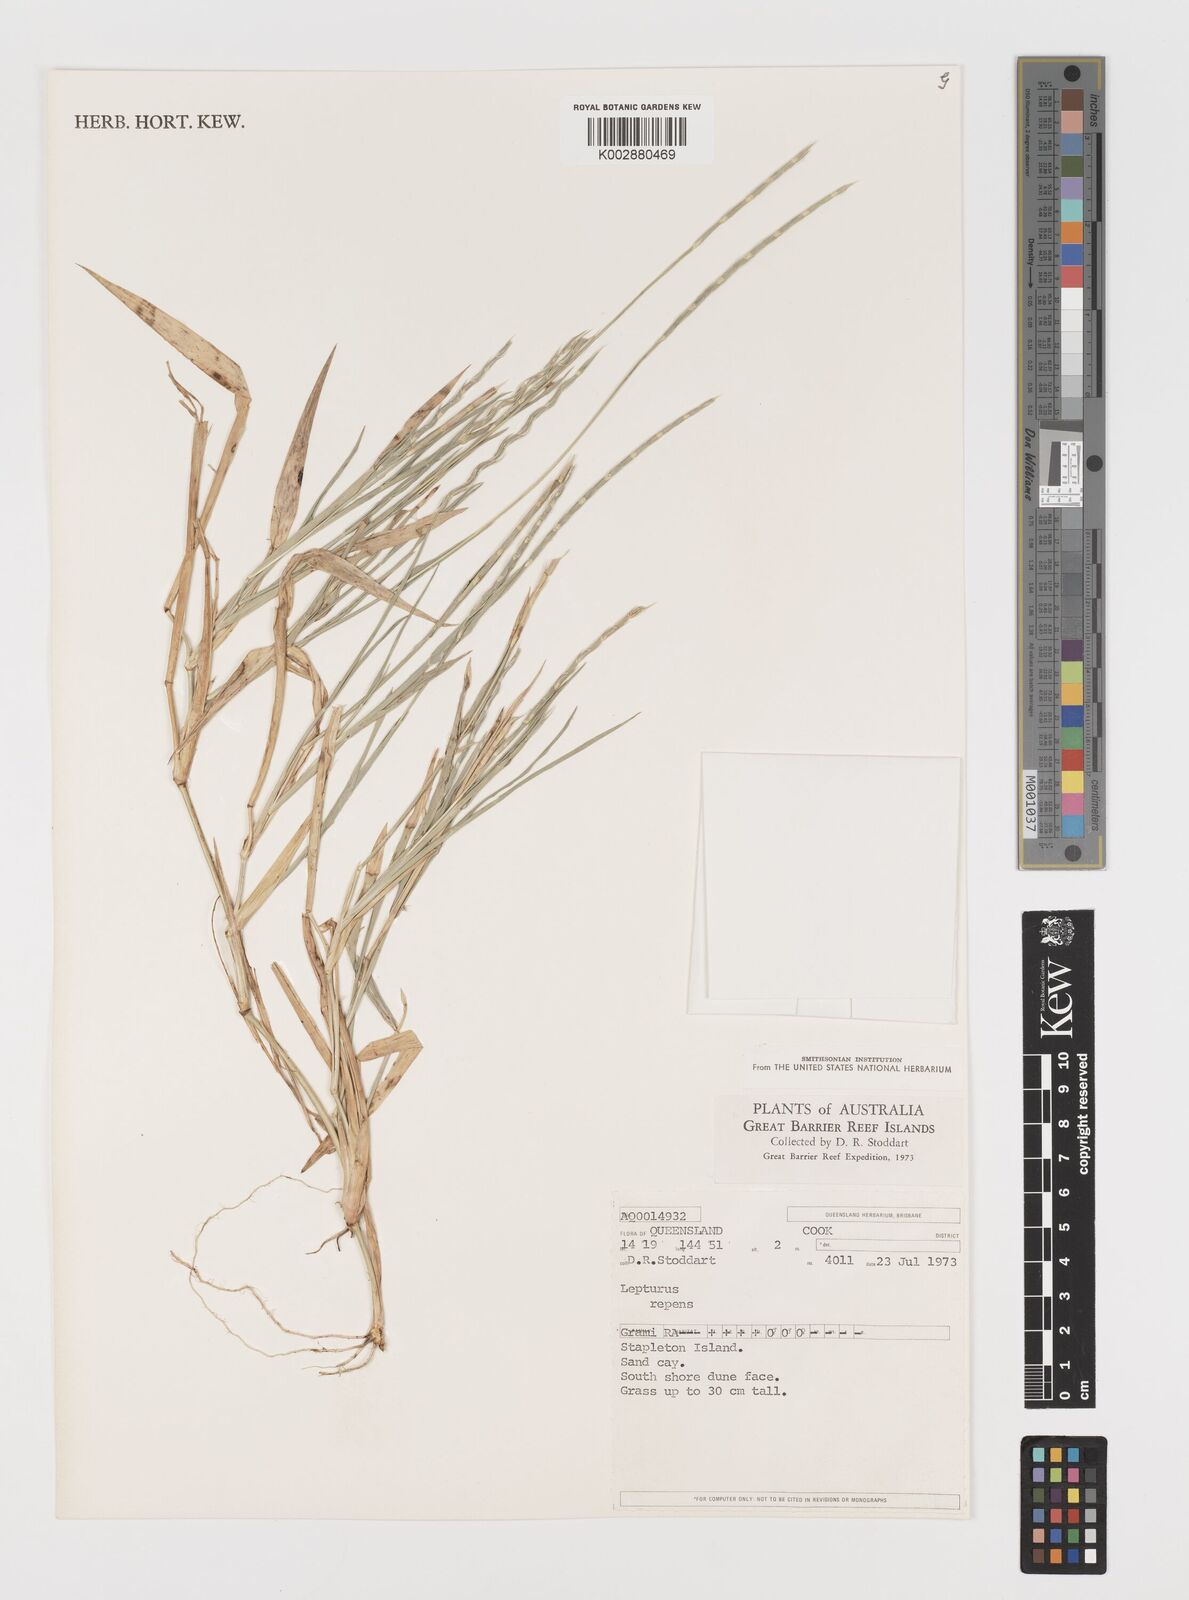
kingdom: Plantae
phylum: Tracheophyta
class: Liliopsida
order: Poales
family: Poaceae
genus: Lepturus
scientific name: Lepturus repens
